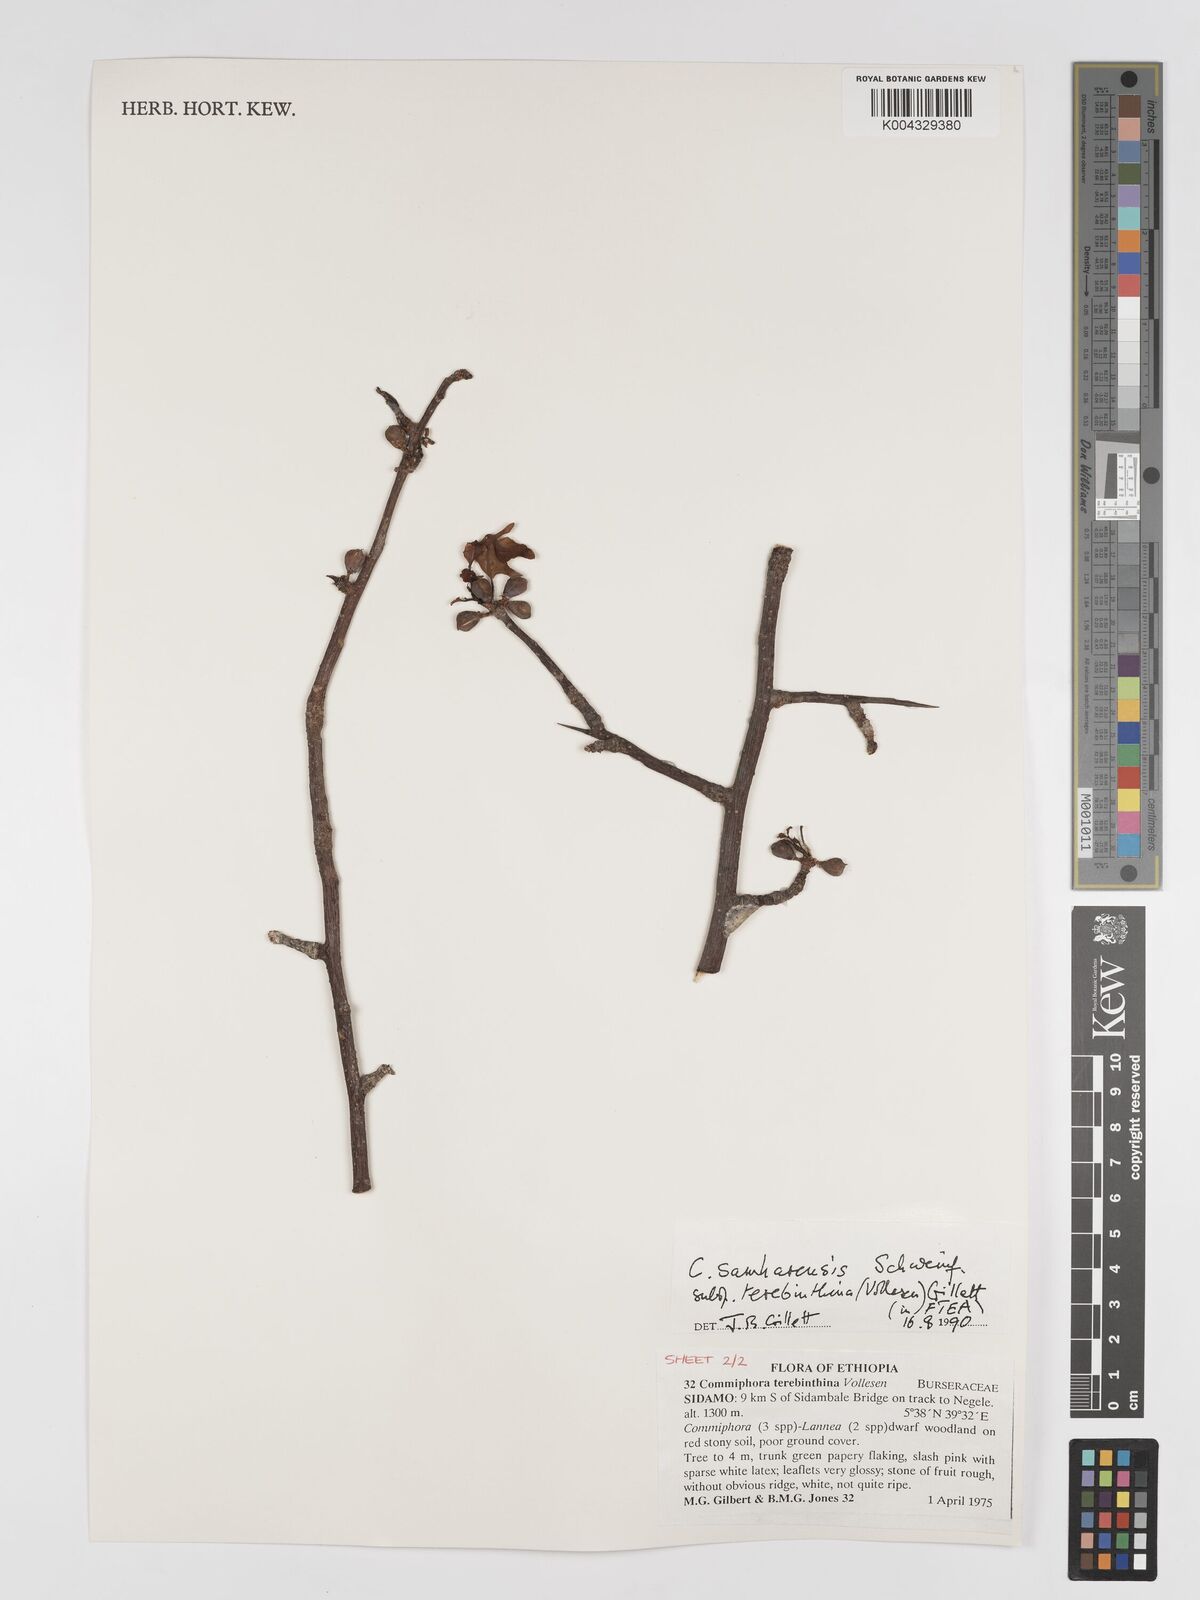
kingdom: Plantae
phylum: Tracheophyta
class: Magnoliopsida
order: Sapindales
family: Burseraceae
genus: Commiphora
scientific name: Commiphora samharensis
